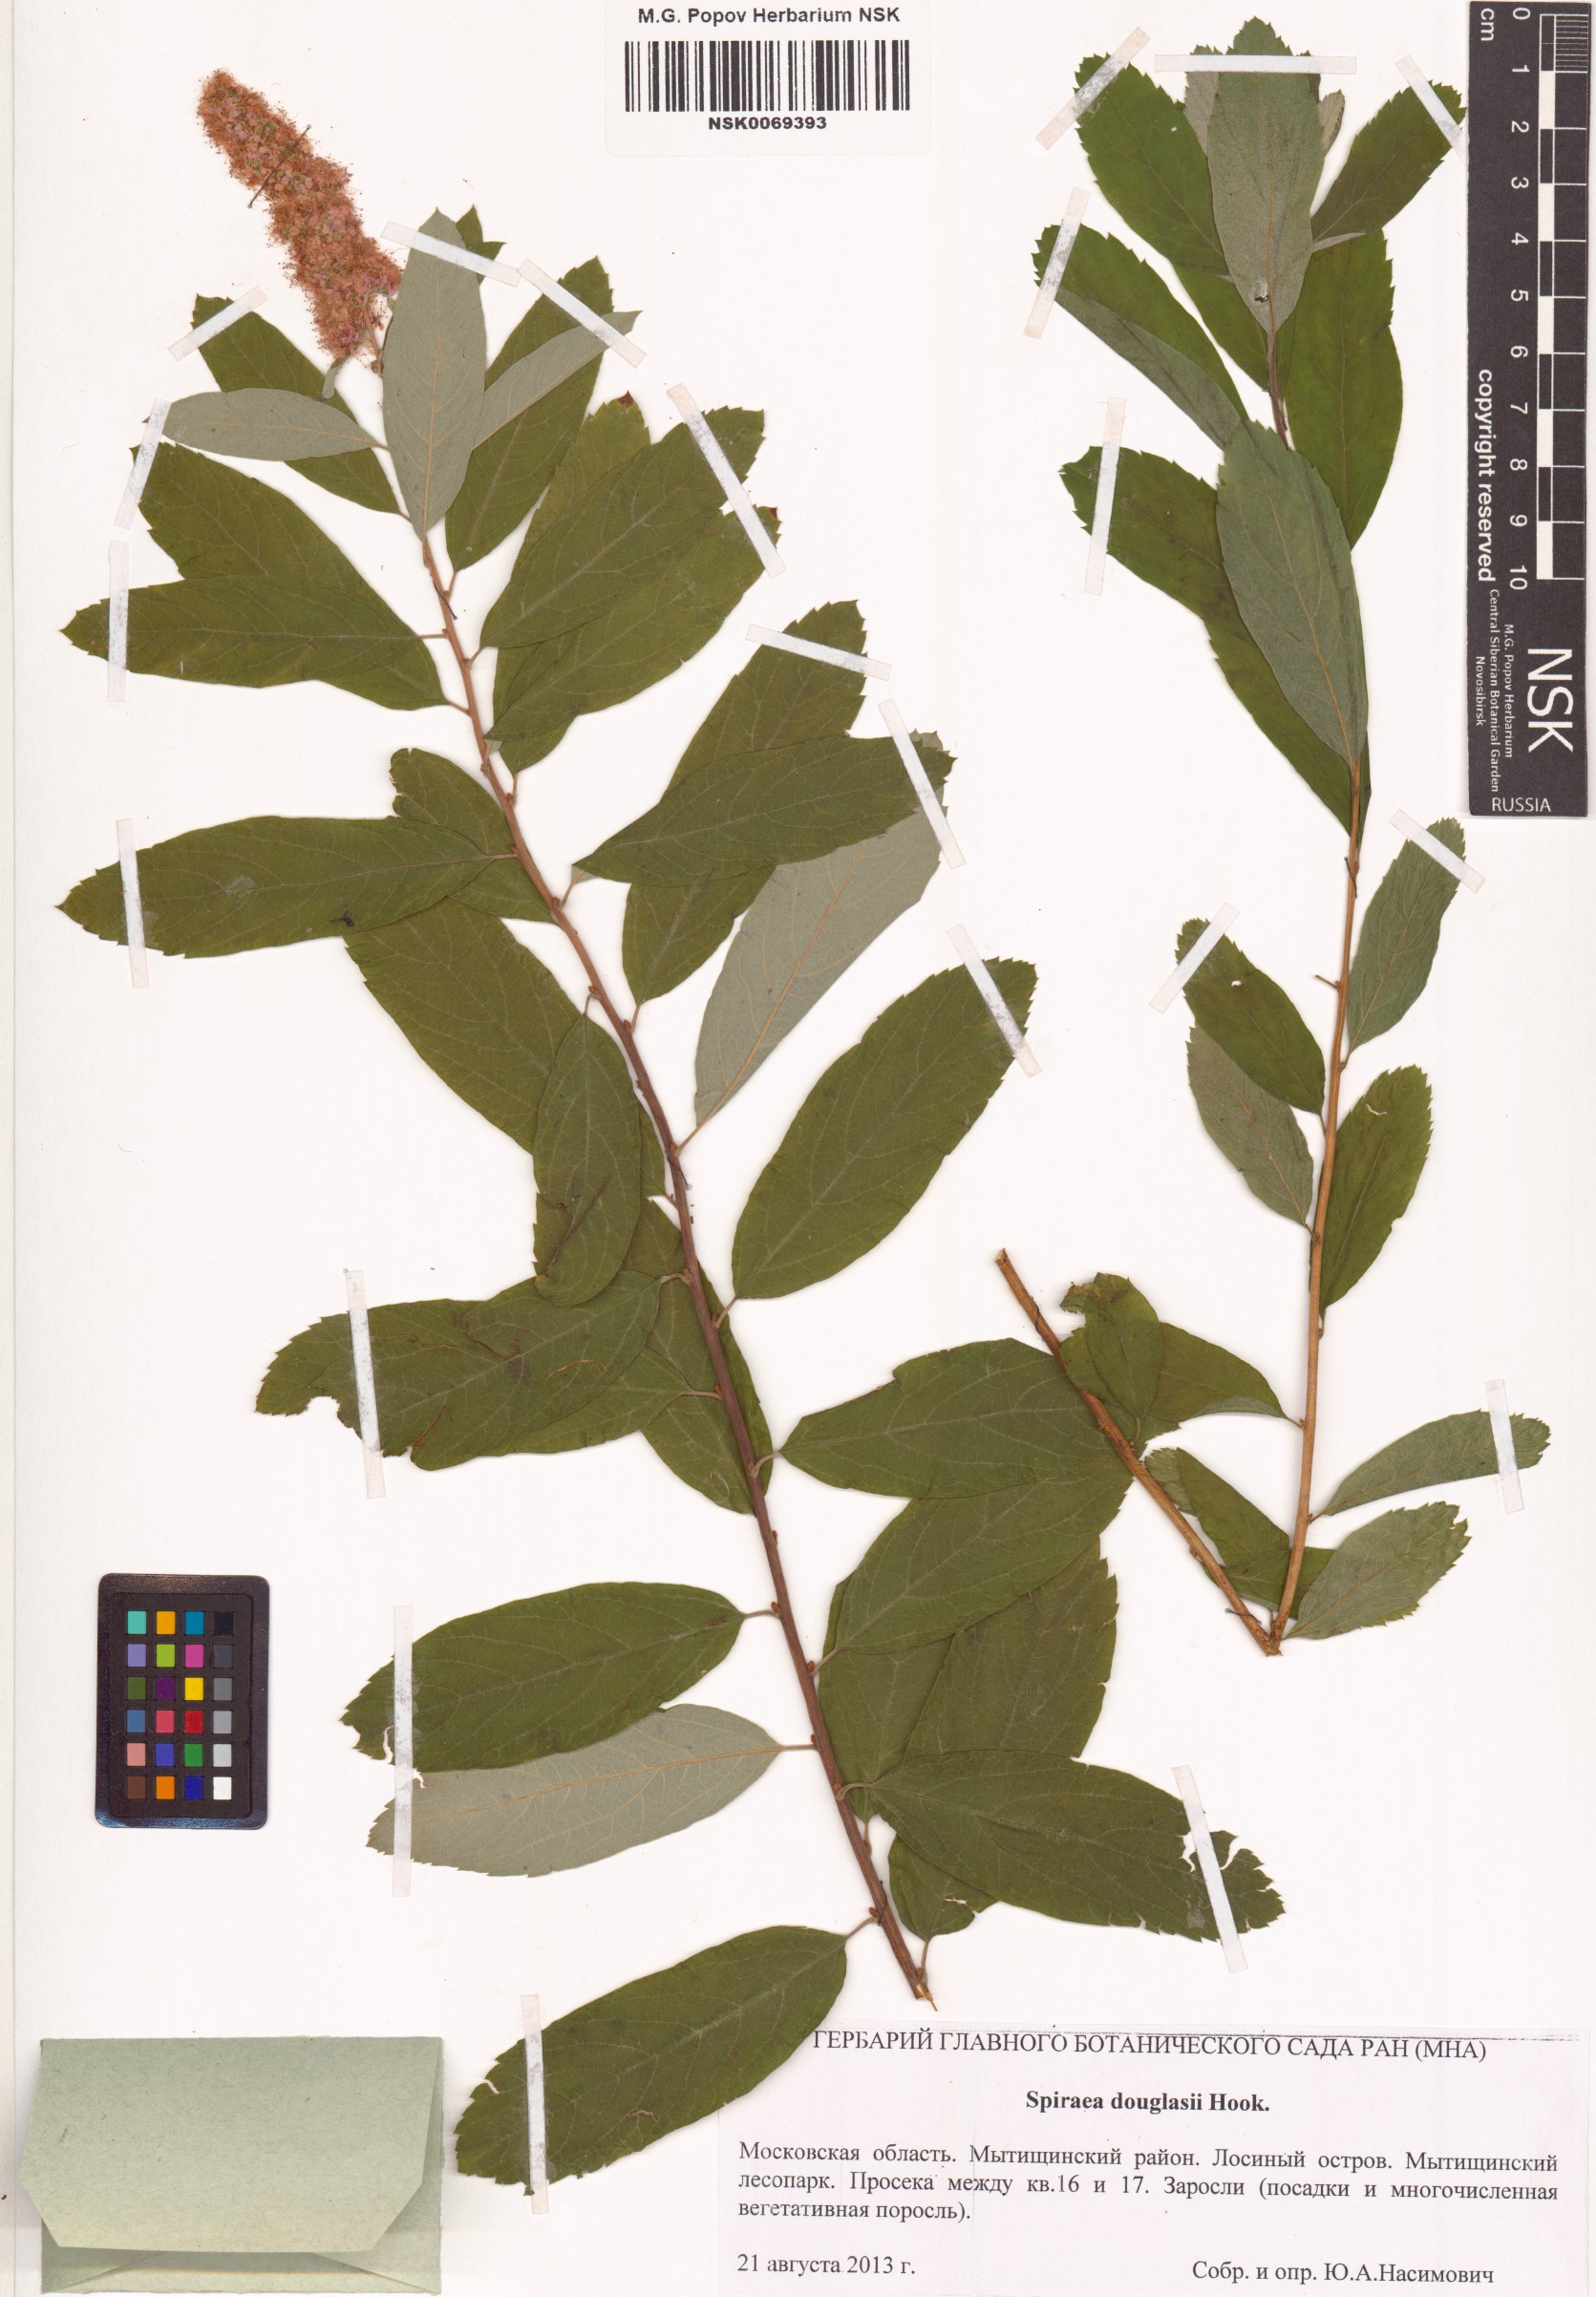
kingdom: Plantae
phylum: Tracheophyta
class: Magnoliopsida
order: Rosales
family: Rosaceae
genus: Spiraea
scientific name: Spiraea douglasii
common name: Steeplebush
